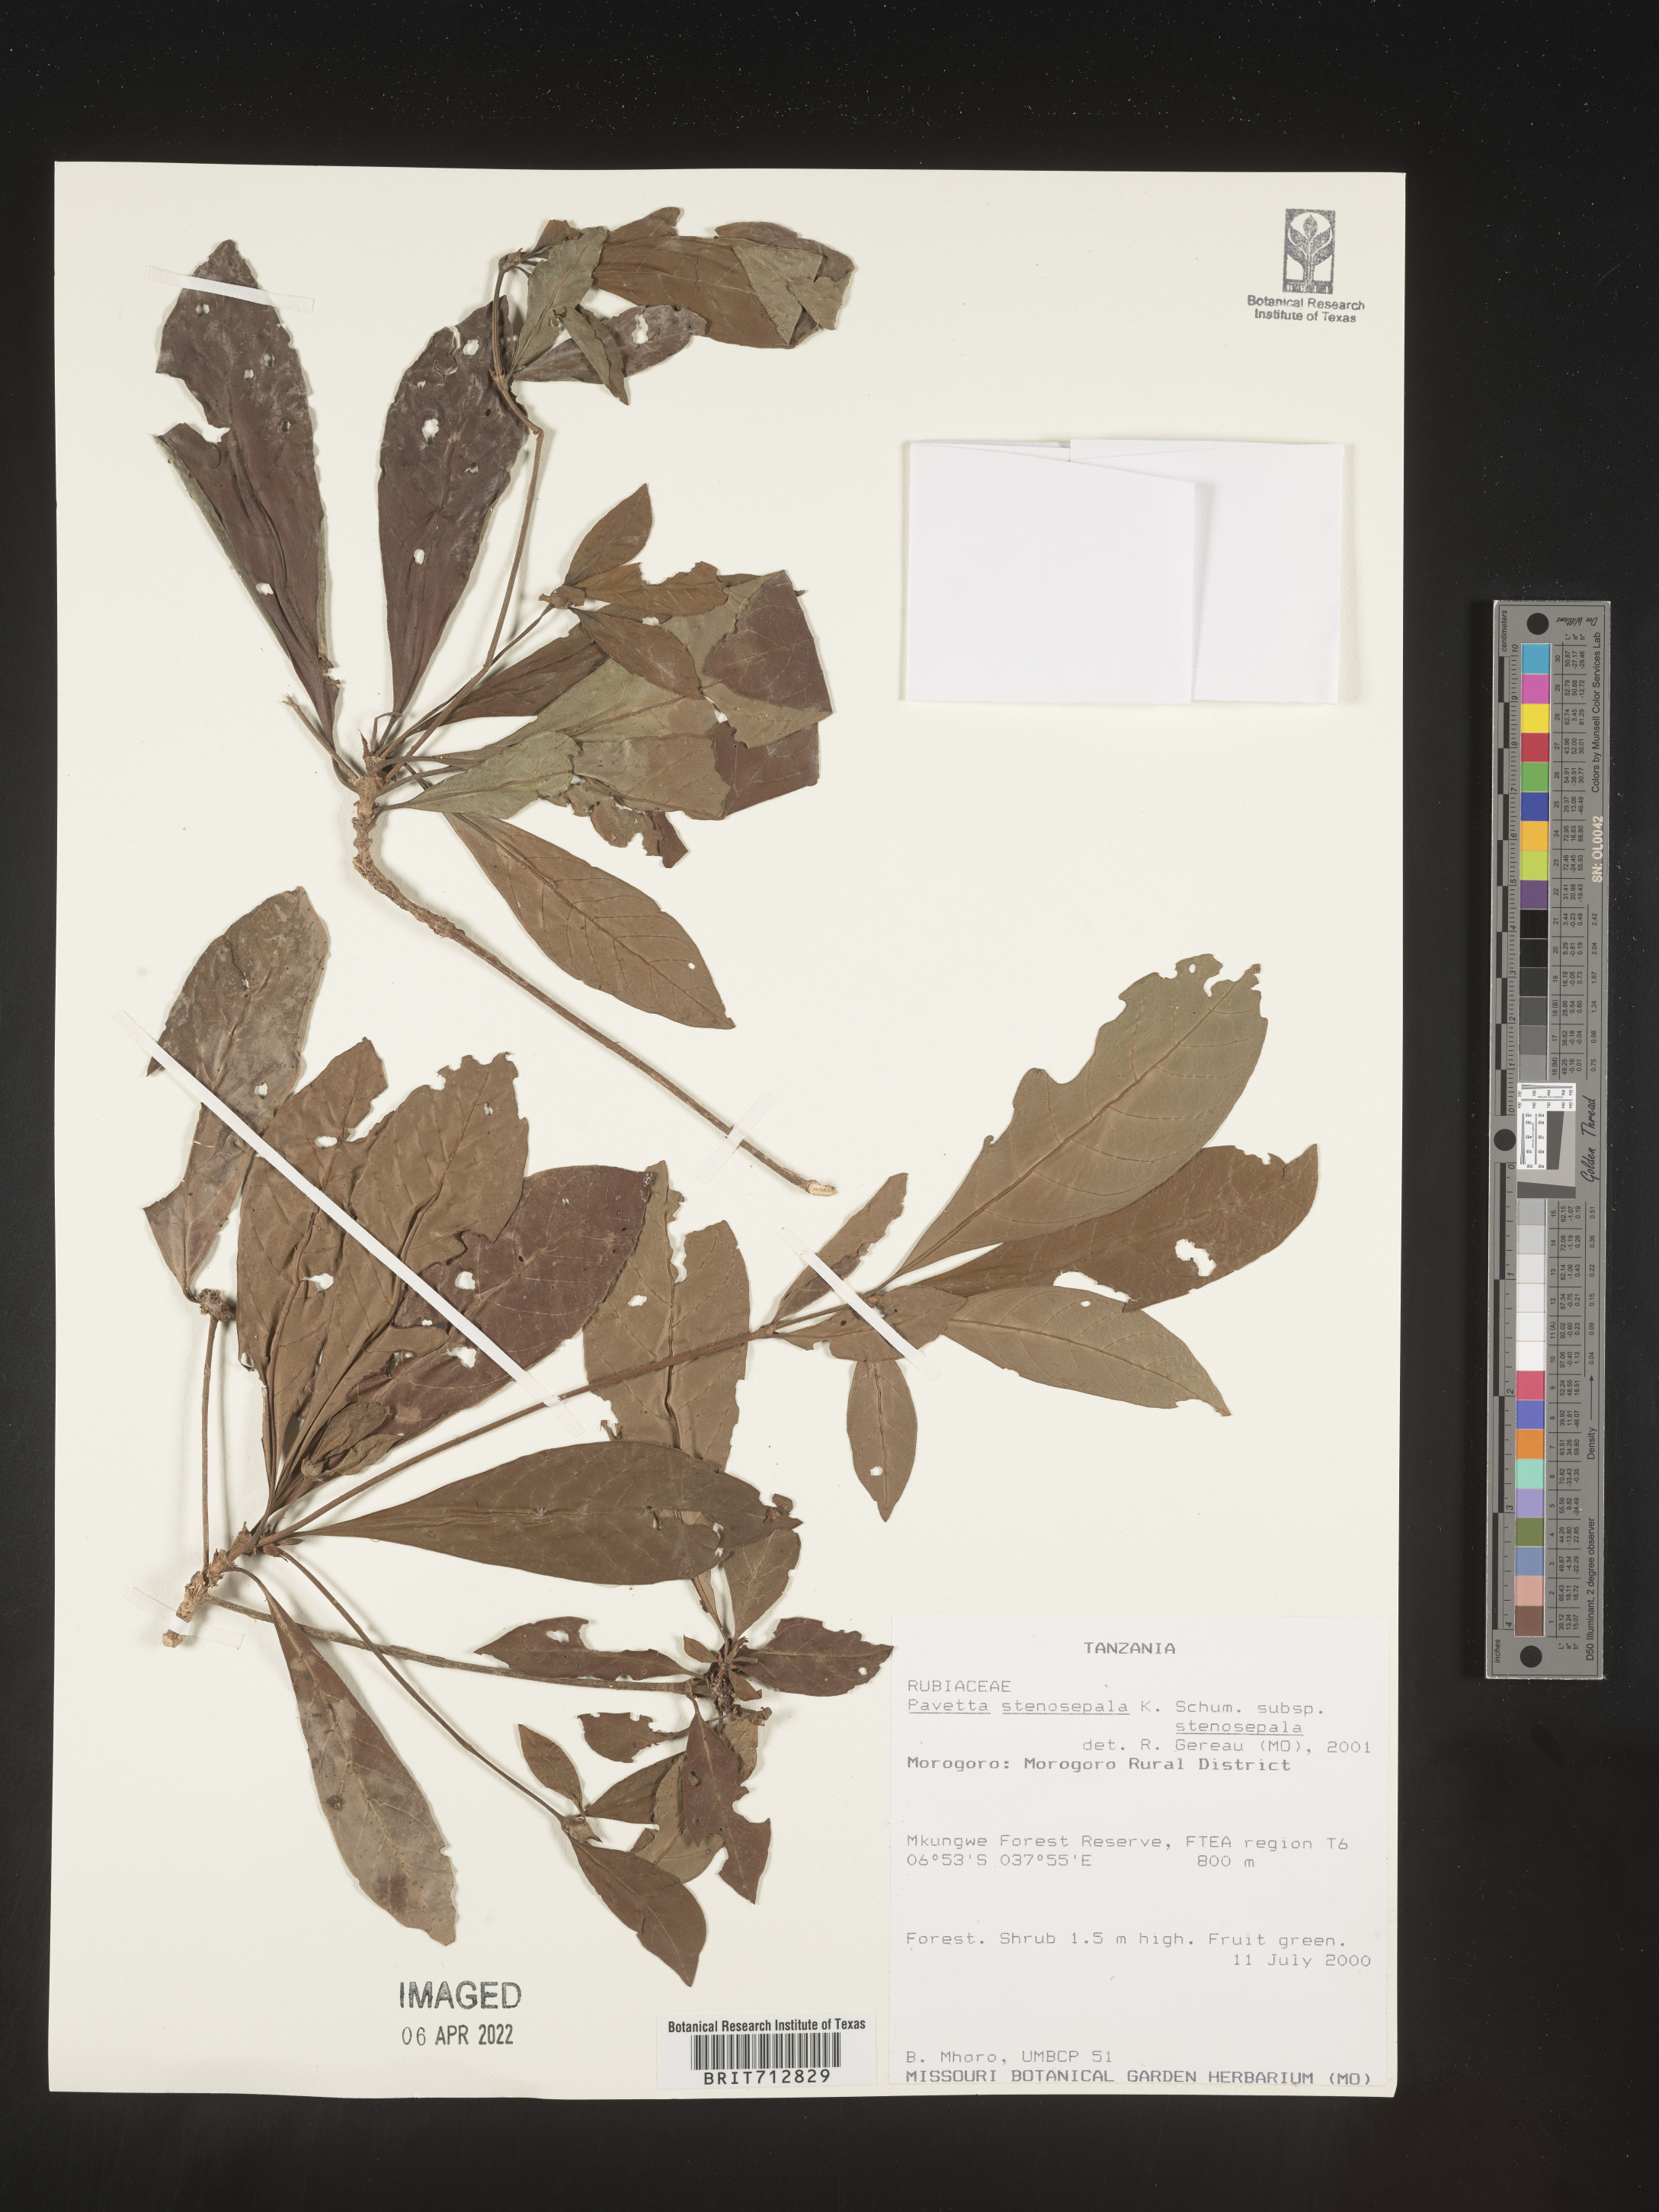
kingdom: Plantae
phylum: Tracheophyta
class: Magnoliopsida
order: Gentianales
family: Rubiaceae
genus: Pavetta
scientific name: Pavetta
